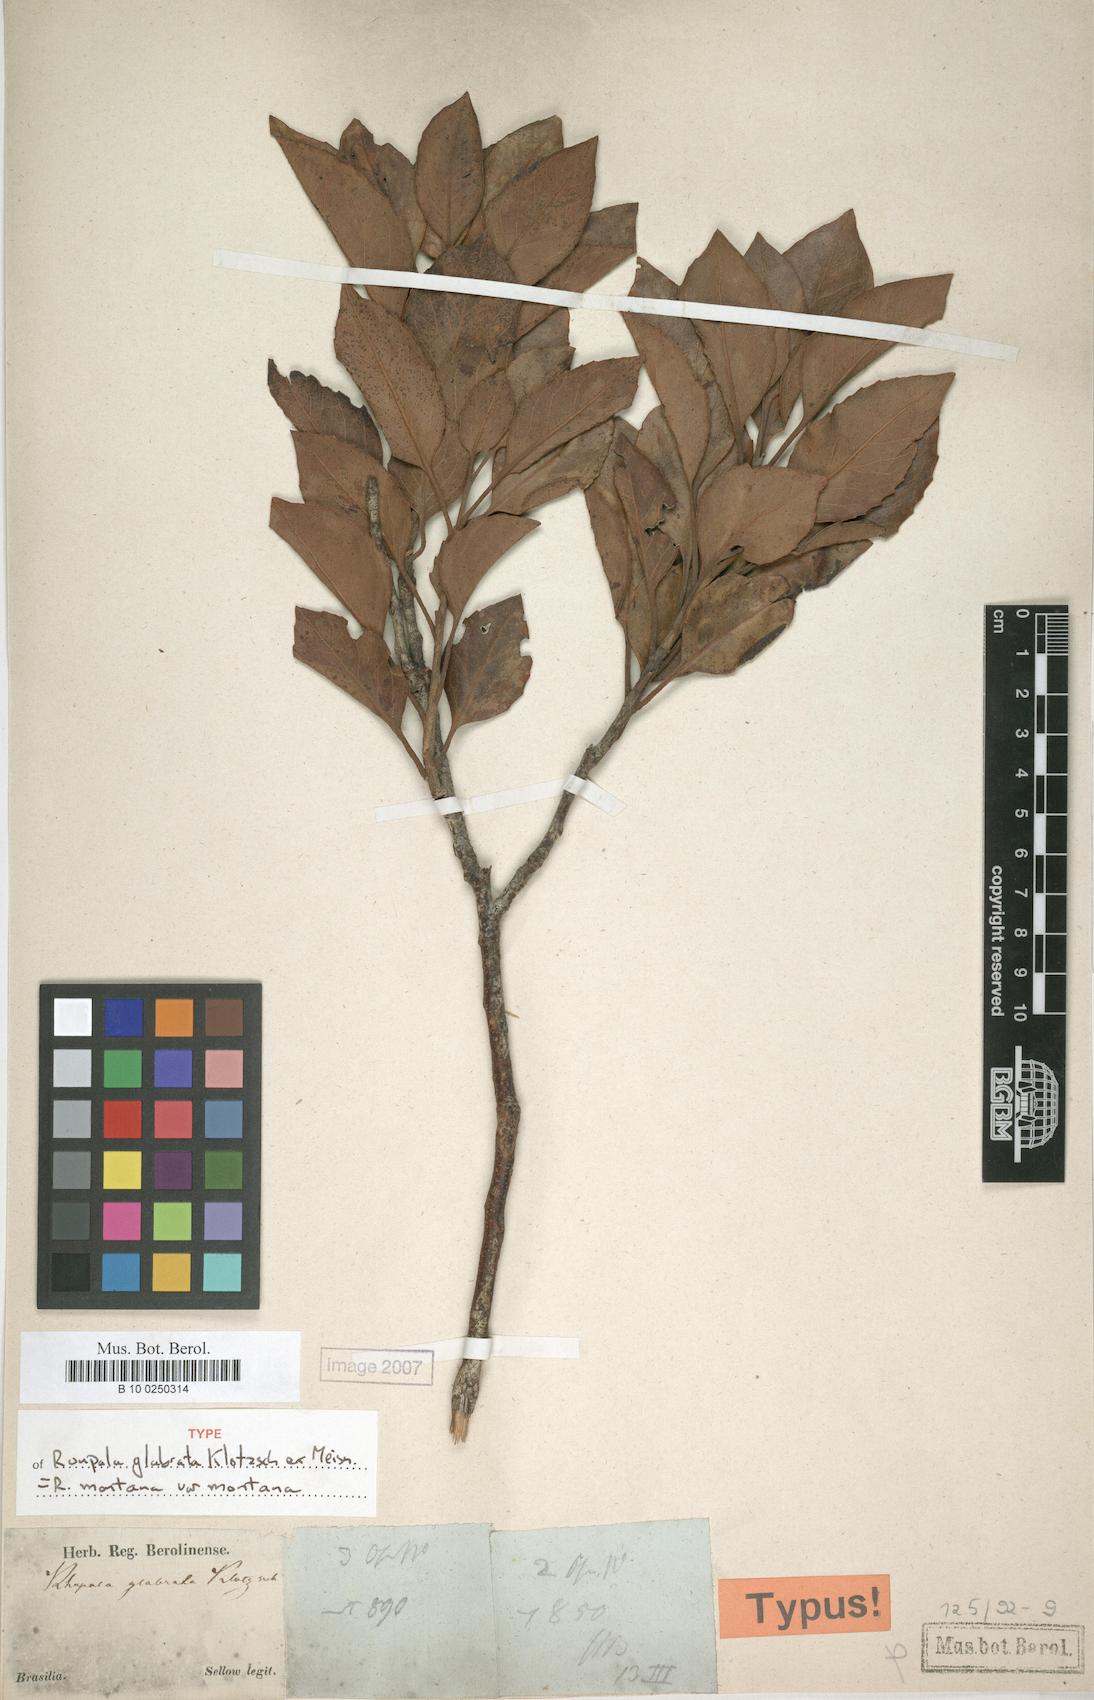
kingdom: Plantae
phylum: Tracheophyta
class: Magnoliopsida
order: Proteales
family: Proteaceae
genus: Roupala
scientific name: Roupala montana
